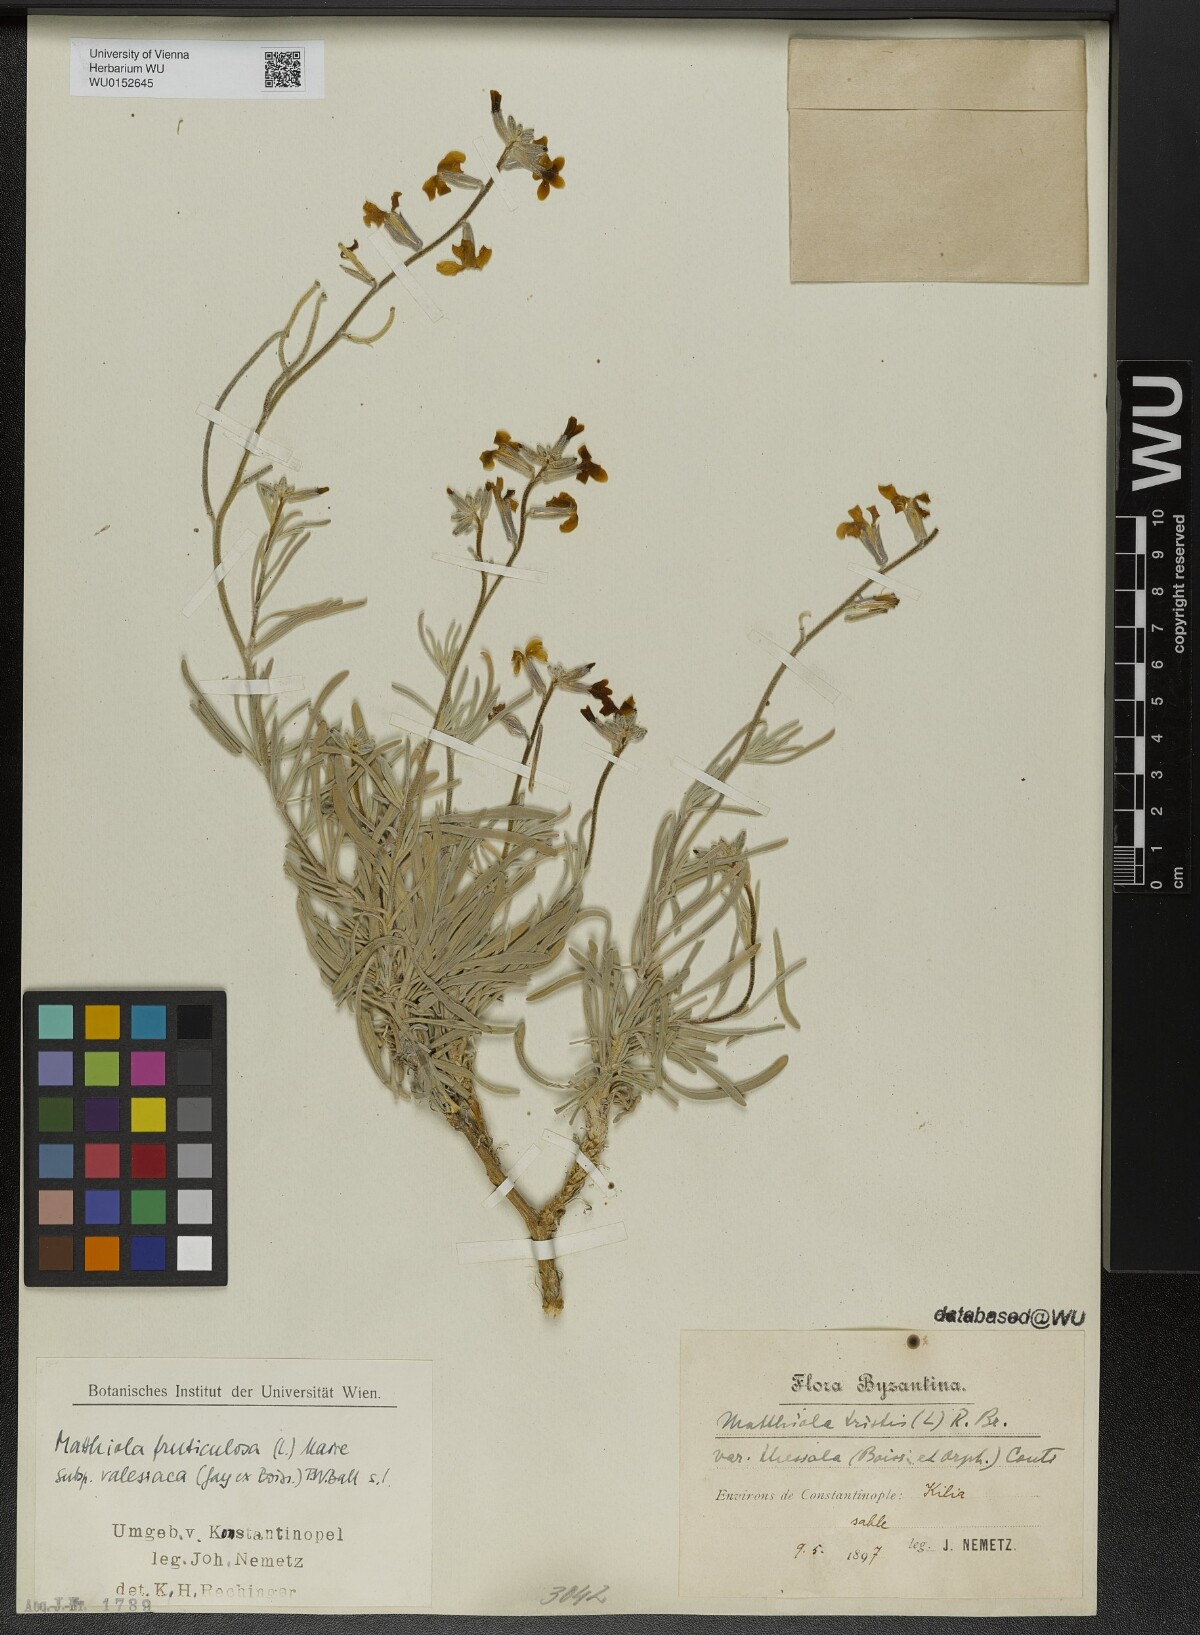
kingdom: Plantae
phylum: Tracheophyta
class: Magnoliopsida
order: Brassicales
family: Brassicaceae
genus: Matthiola
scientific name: Matthiola fruticulosa
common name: Sad stock
